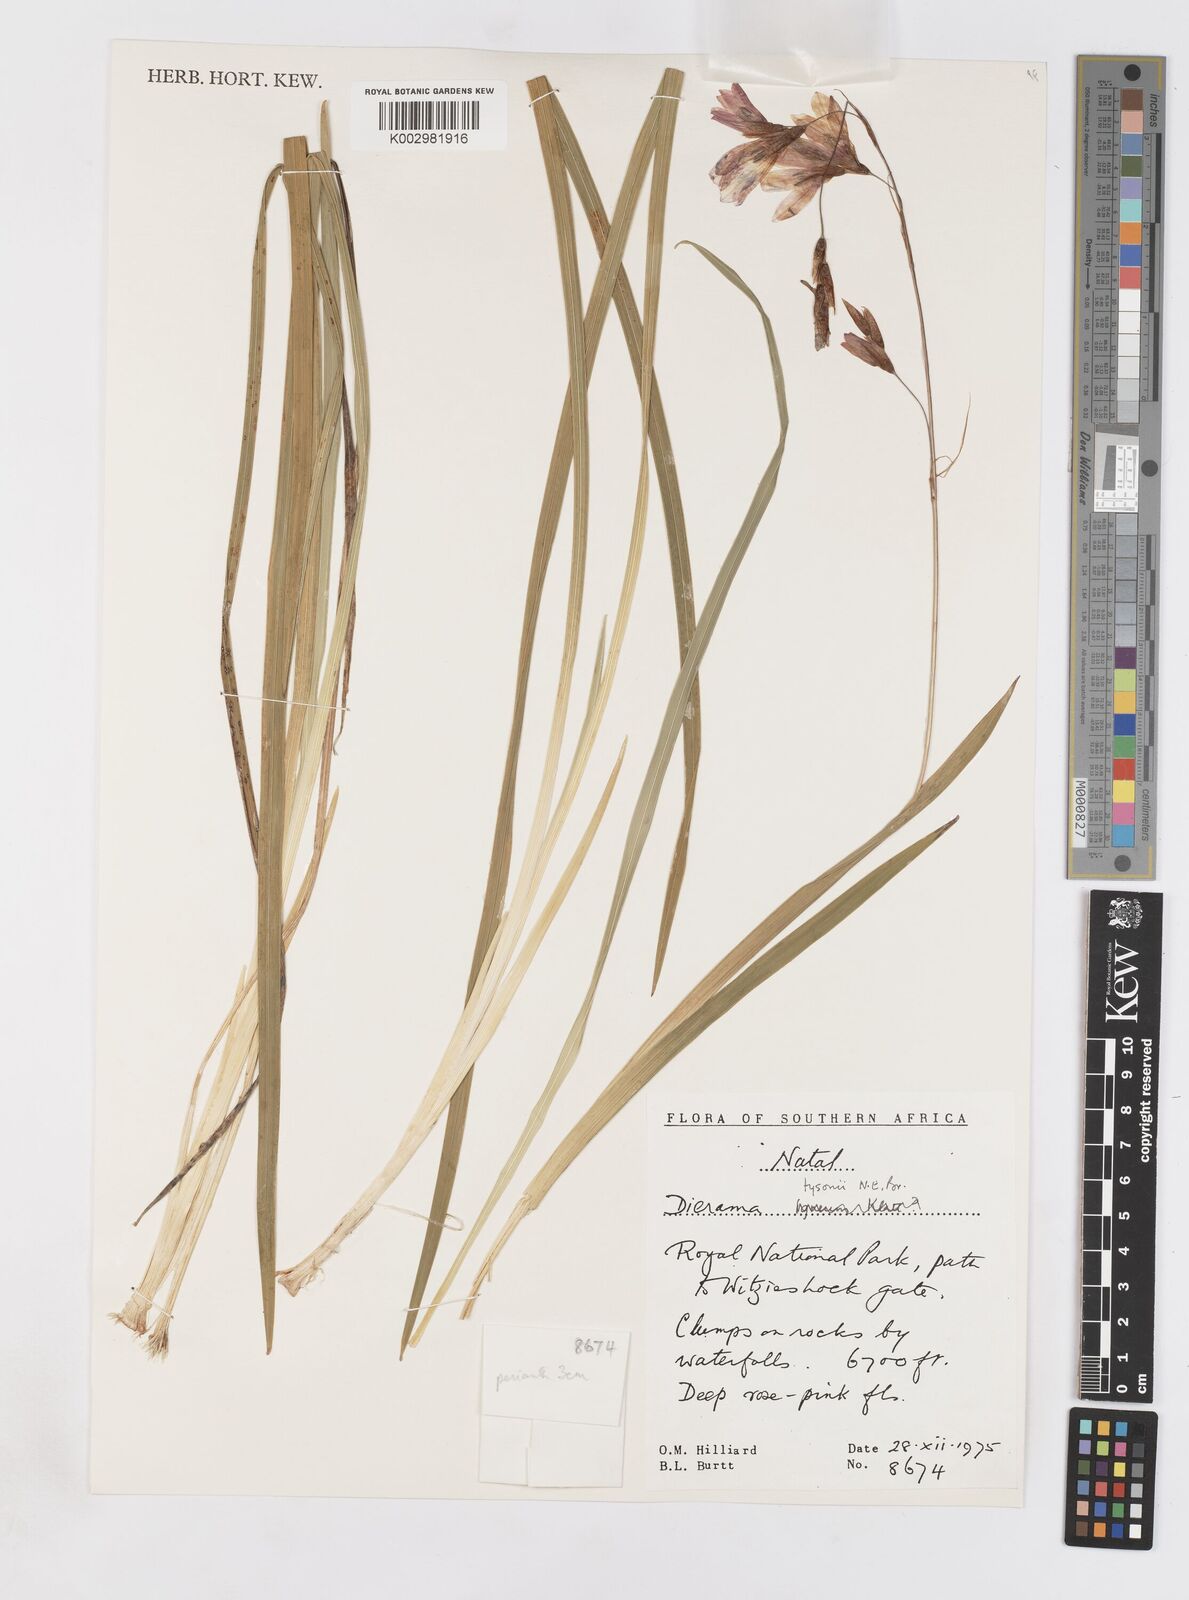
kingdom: Plantae
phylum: Tracheophyta
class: Liliopsida
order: Asparagales
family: Iridaceae
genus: Dierama
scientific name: Dierama tysonii
